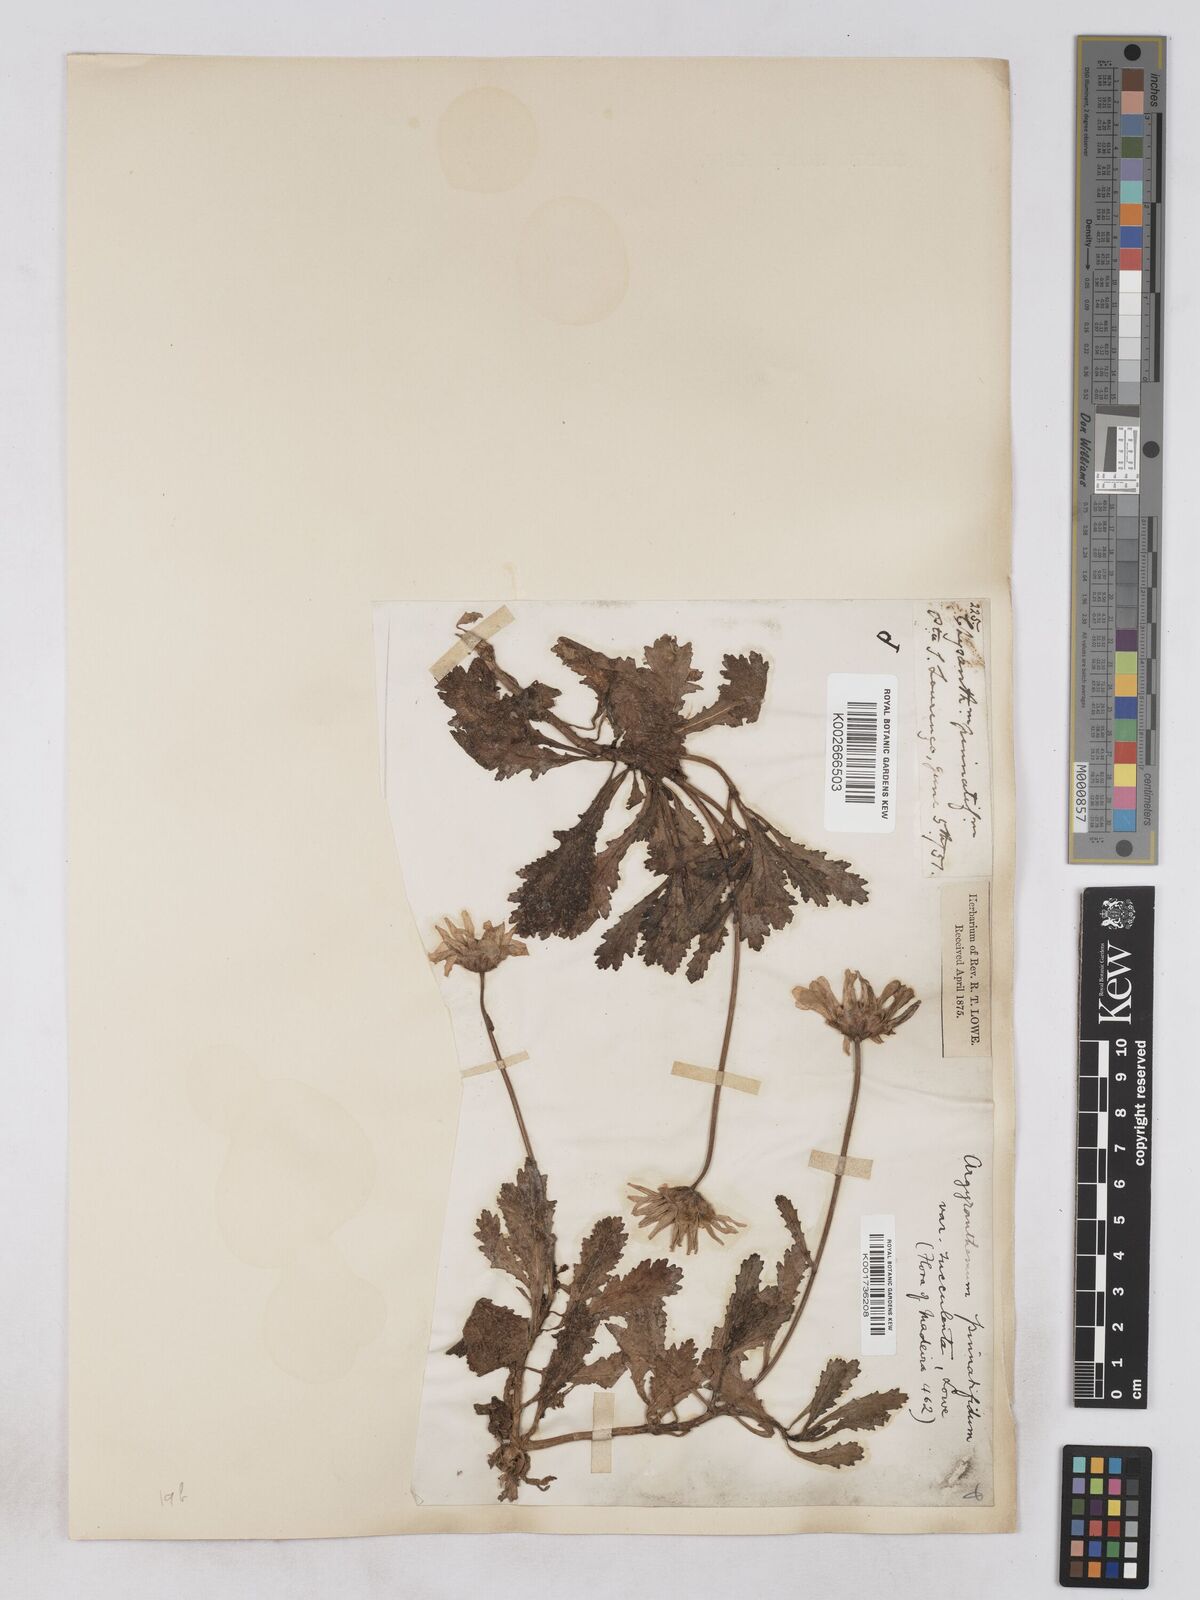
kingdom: Plantae
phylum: Tracheophyta
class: Magnoliopsida
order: Asterales
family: Asteraceae
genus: Argyranthemum
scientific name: Argyranthemum pinnatifidum
